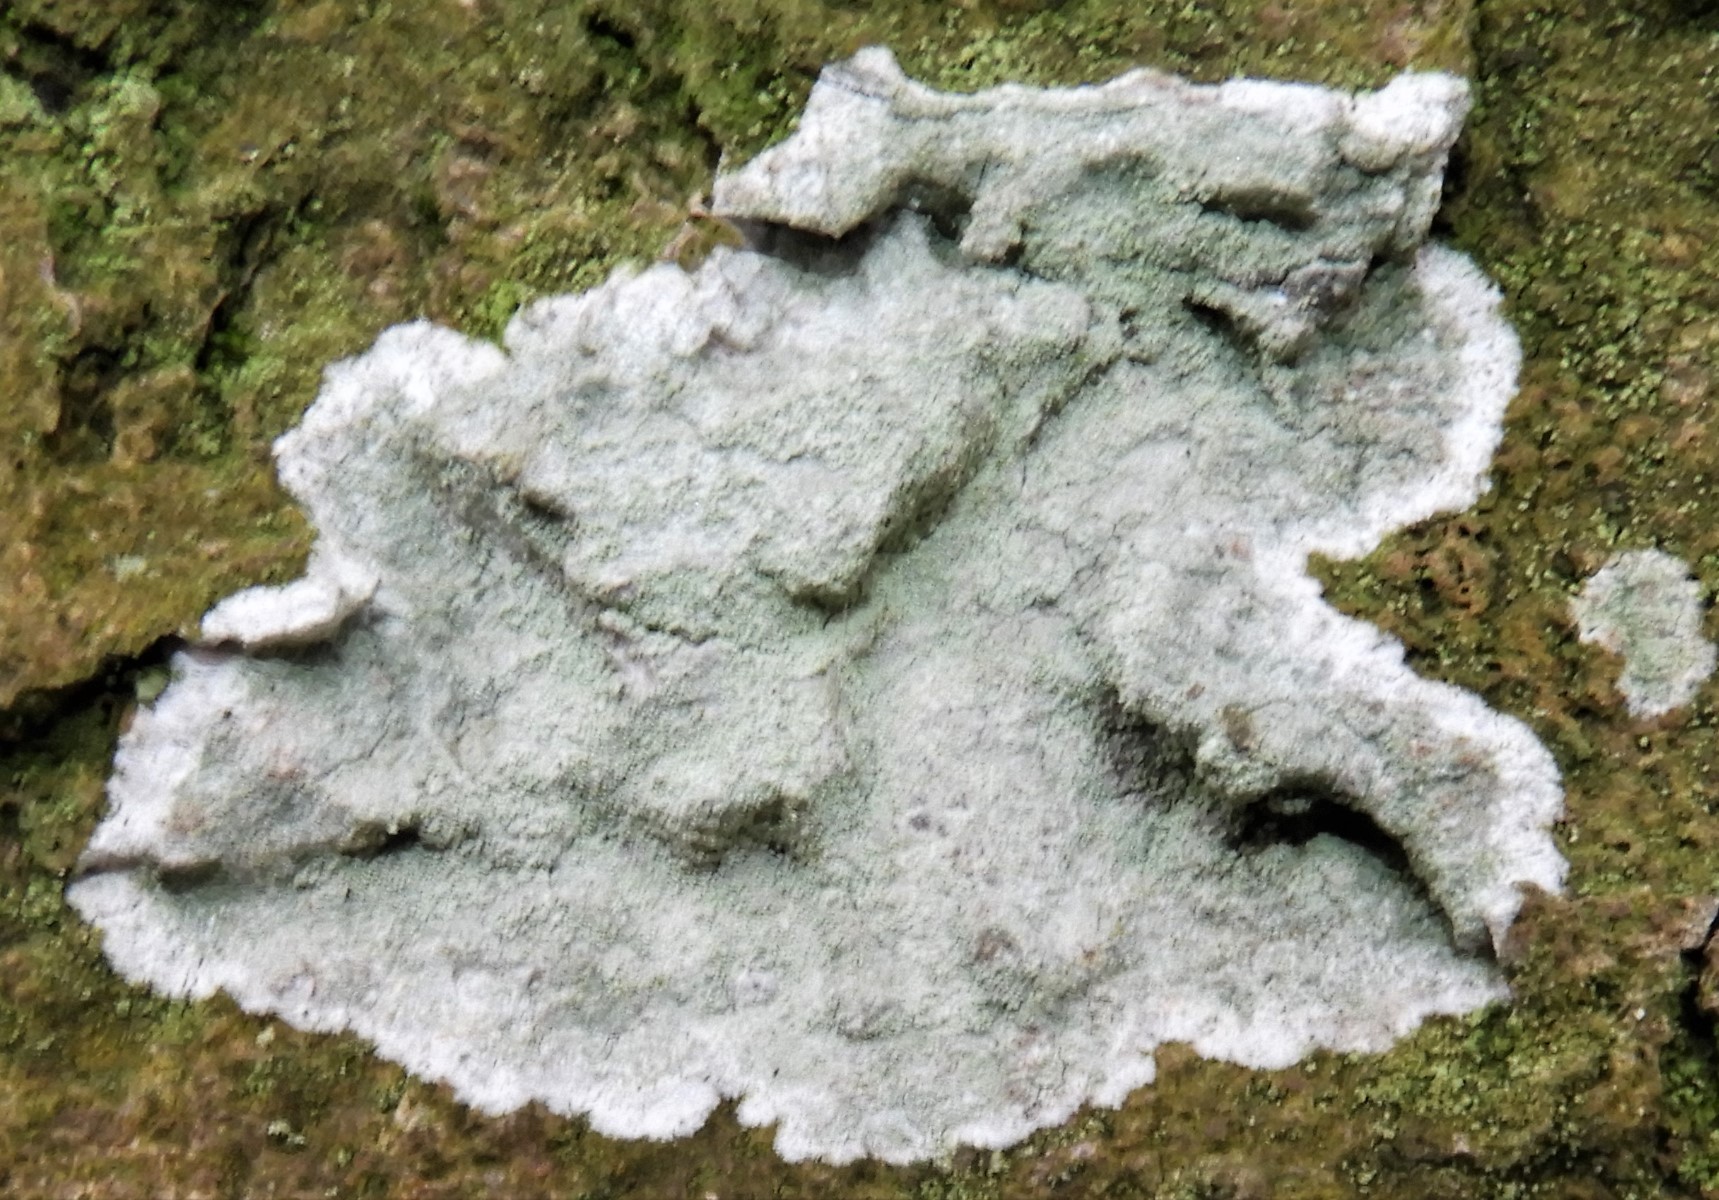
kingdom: Fungi
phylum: Ascomycota
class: Lecanoromycetes
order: Lecanorales
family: Haematommataceae
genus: Haematomma
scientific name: Haematomma ochroleucum
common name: gul trådkantlav
